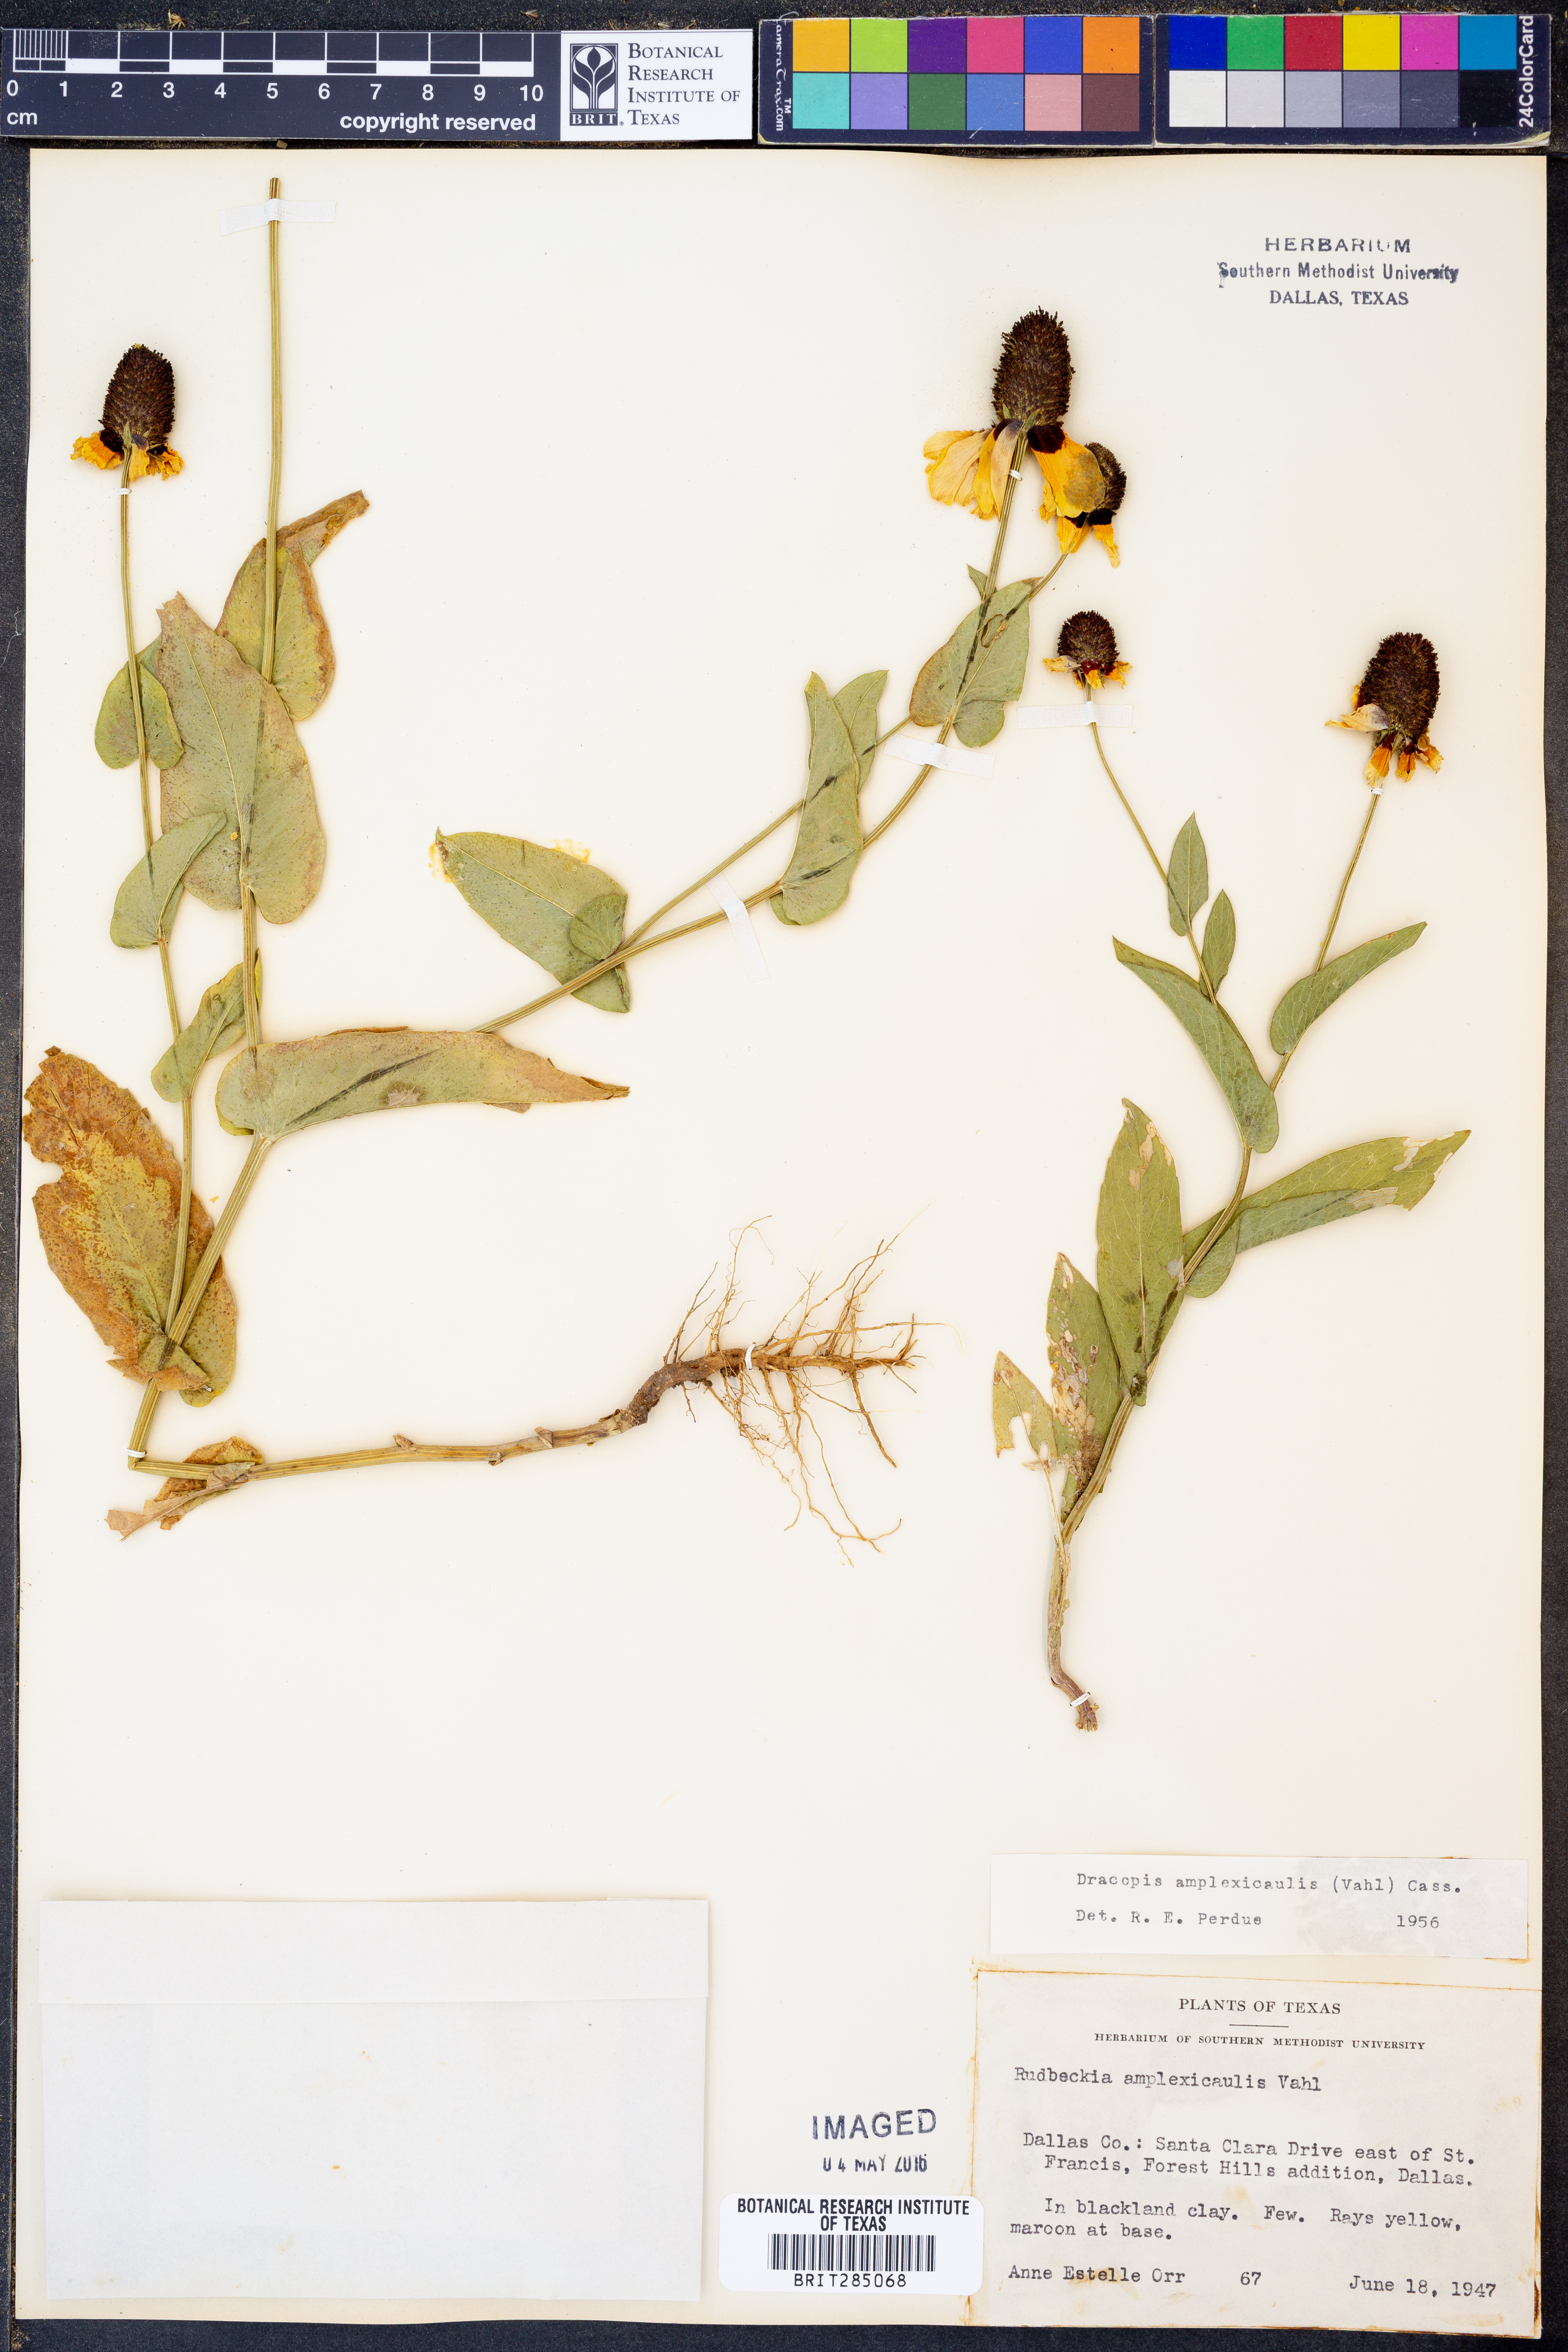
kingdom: Plantae
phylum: Tracheophyta
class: Magnoliopsida
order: Asterales
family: Asteraceae
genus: Rudbeckia
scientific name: Rudbeckia amplexicaulis
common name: Clasping-leaf coneflower
